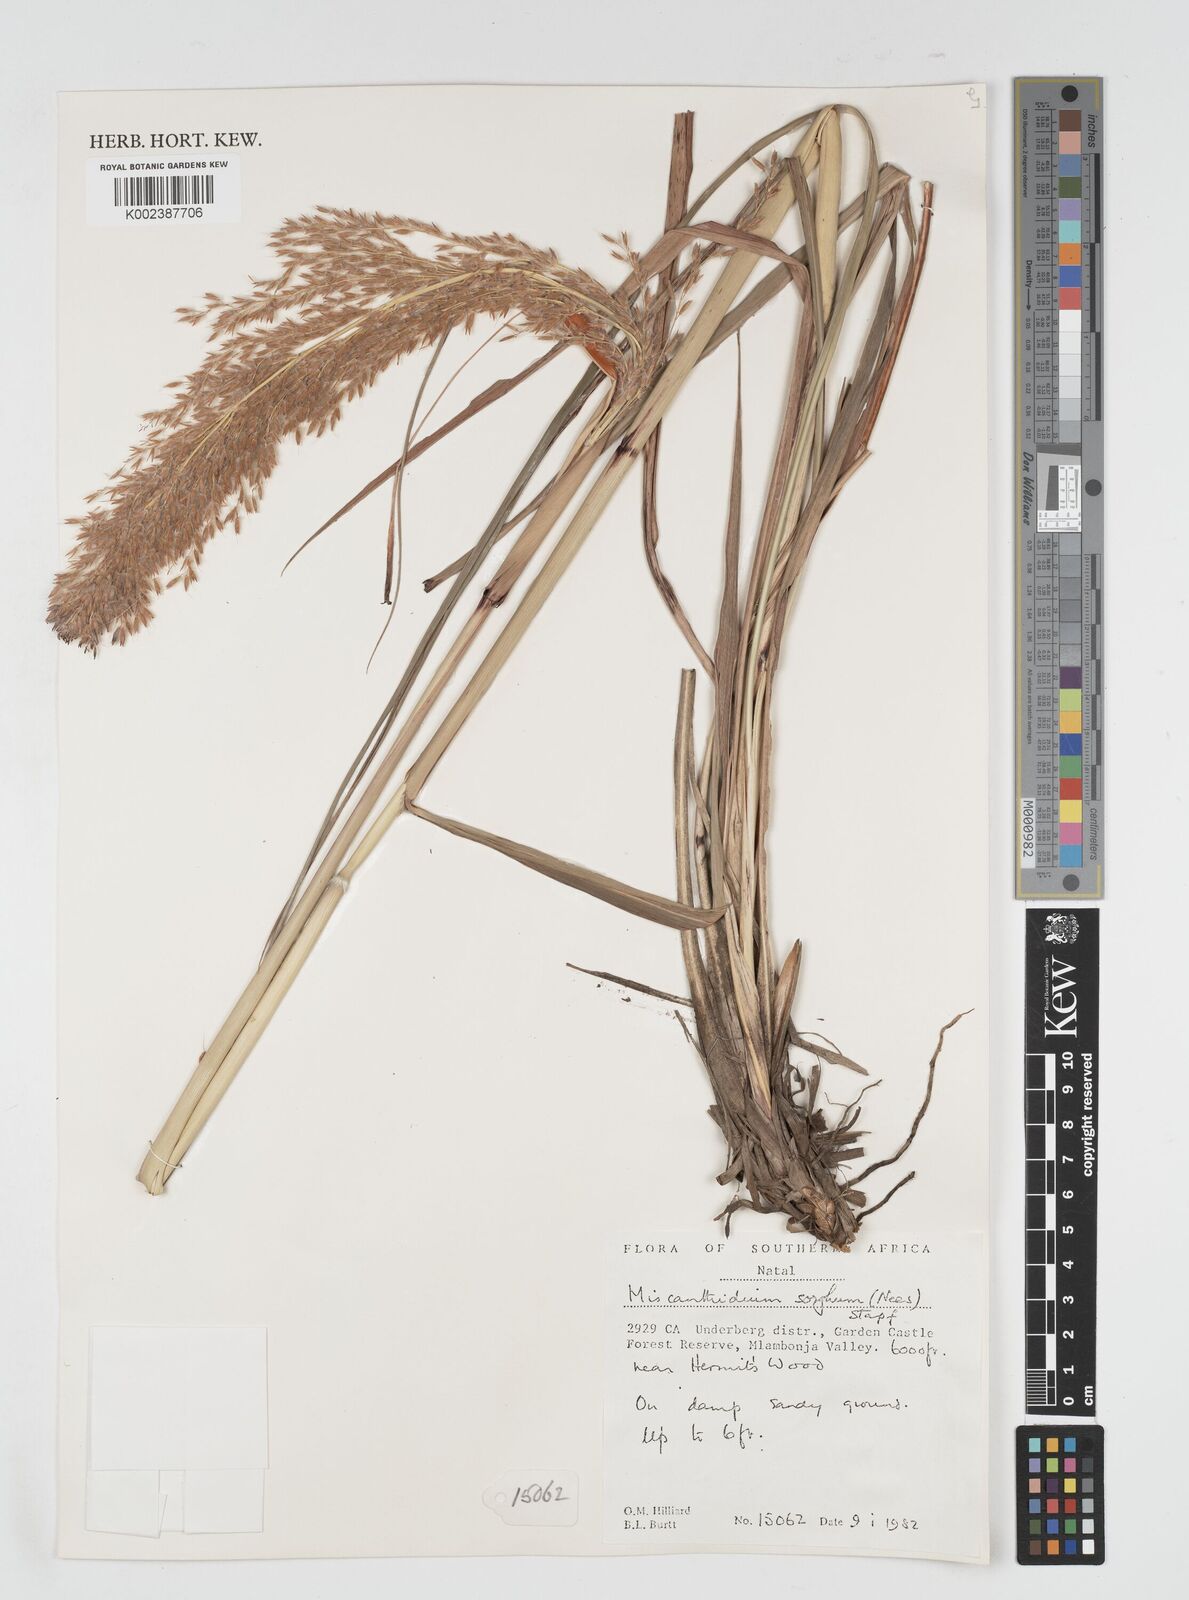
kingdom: Plantae
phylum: Tracheophyta
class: Liliopsida
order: Poales
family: Poaceae
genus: Miscanthus
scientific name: Miscanthus ecklonii
